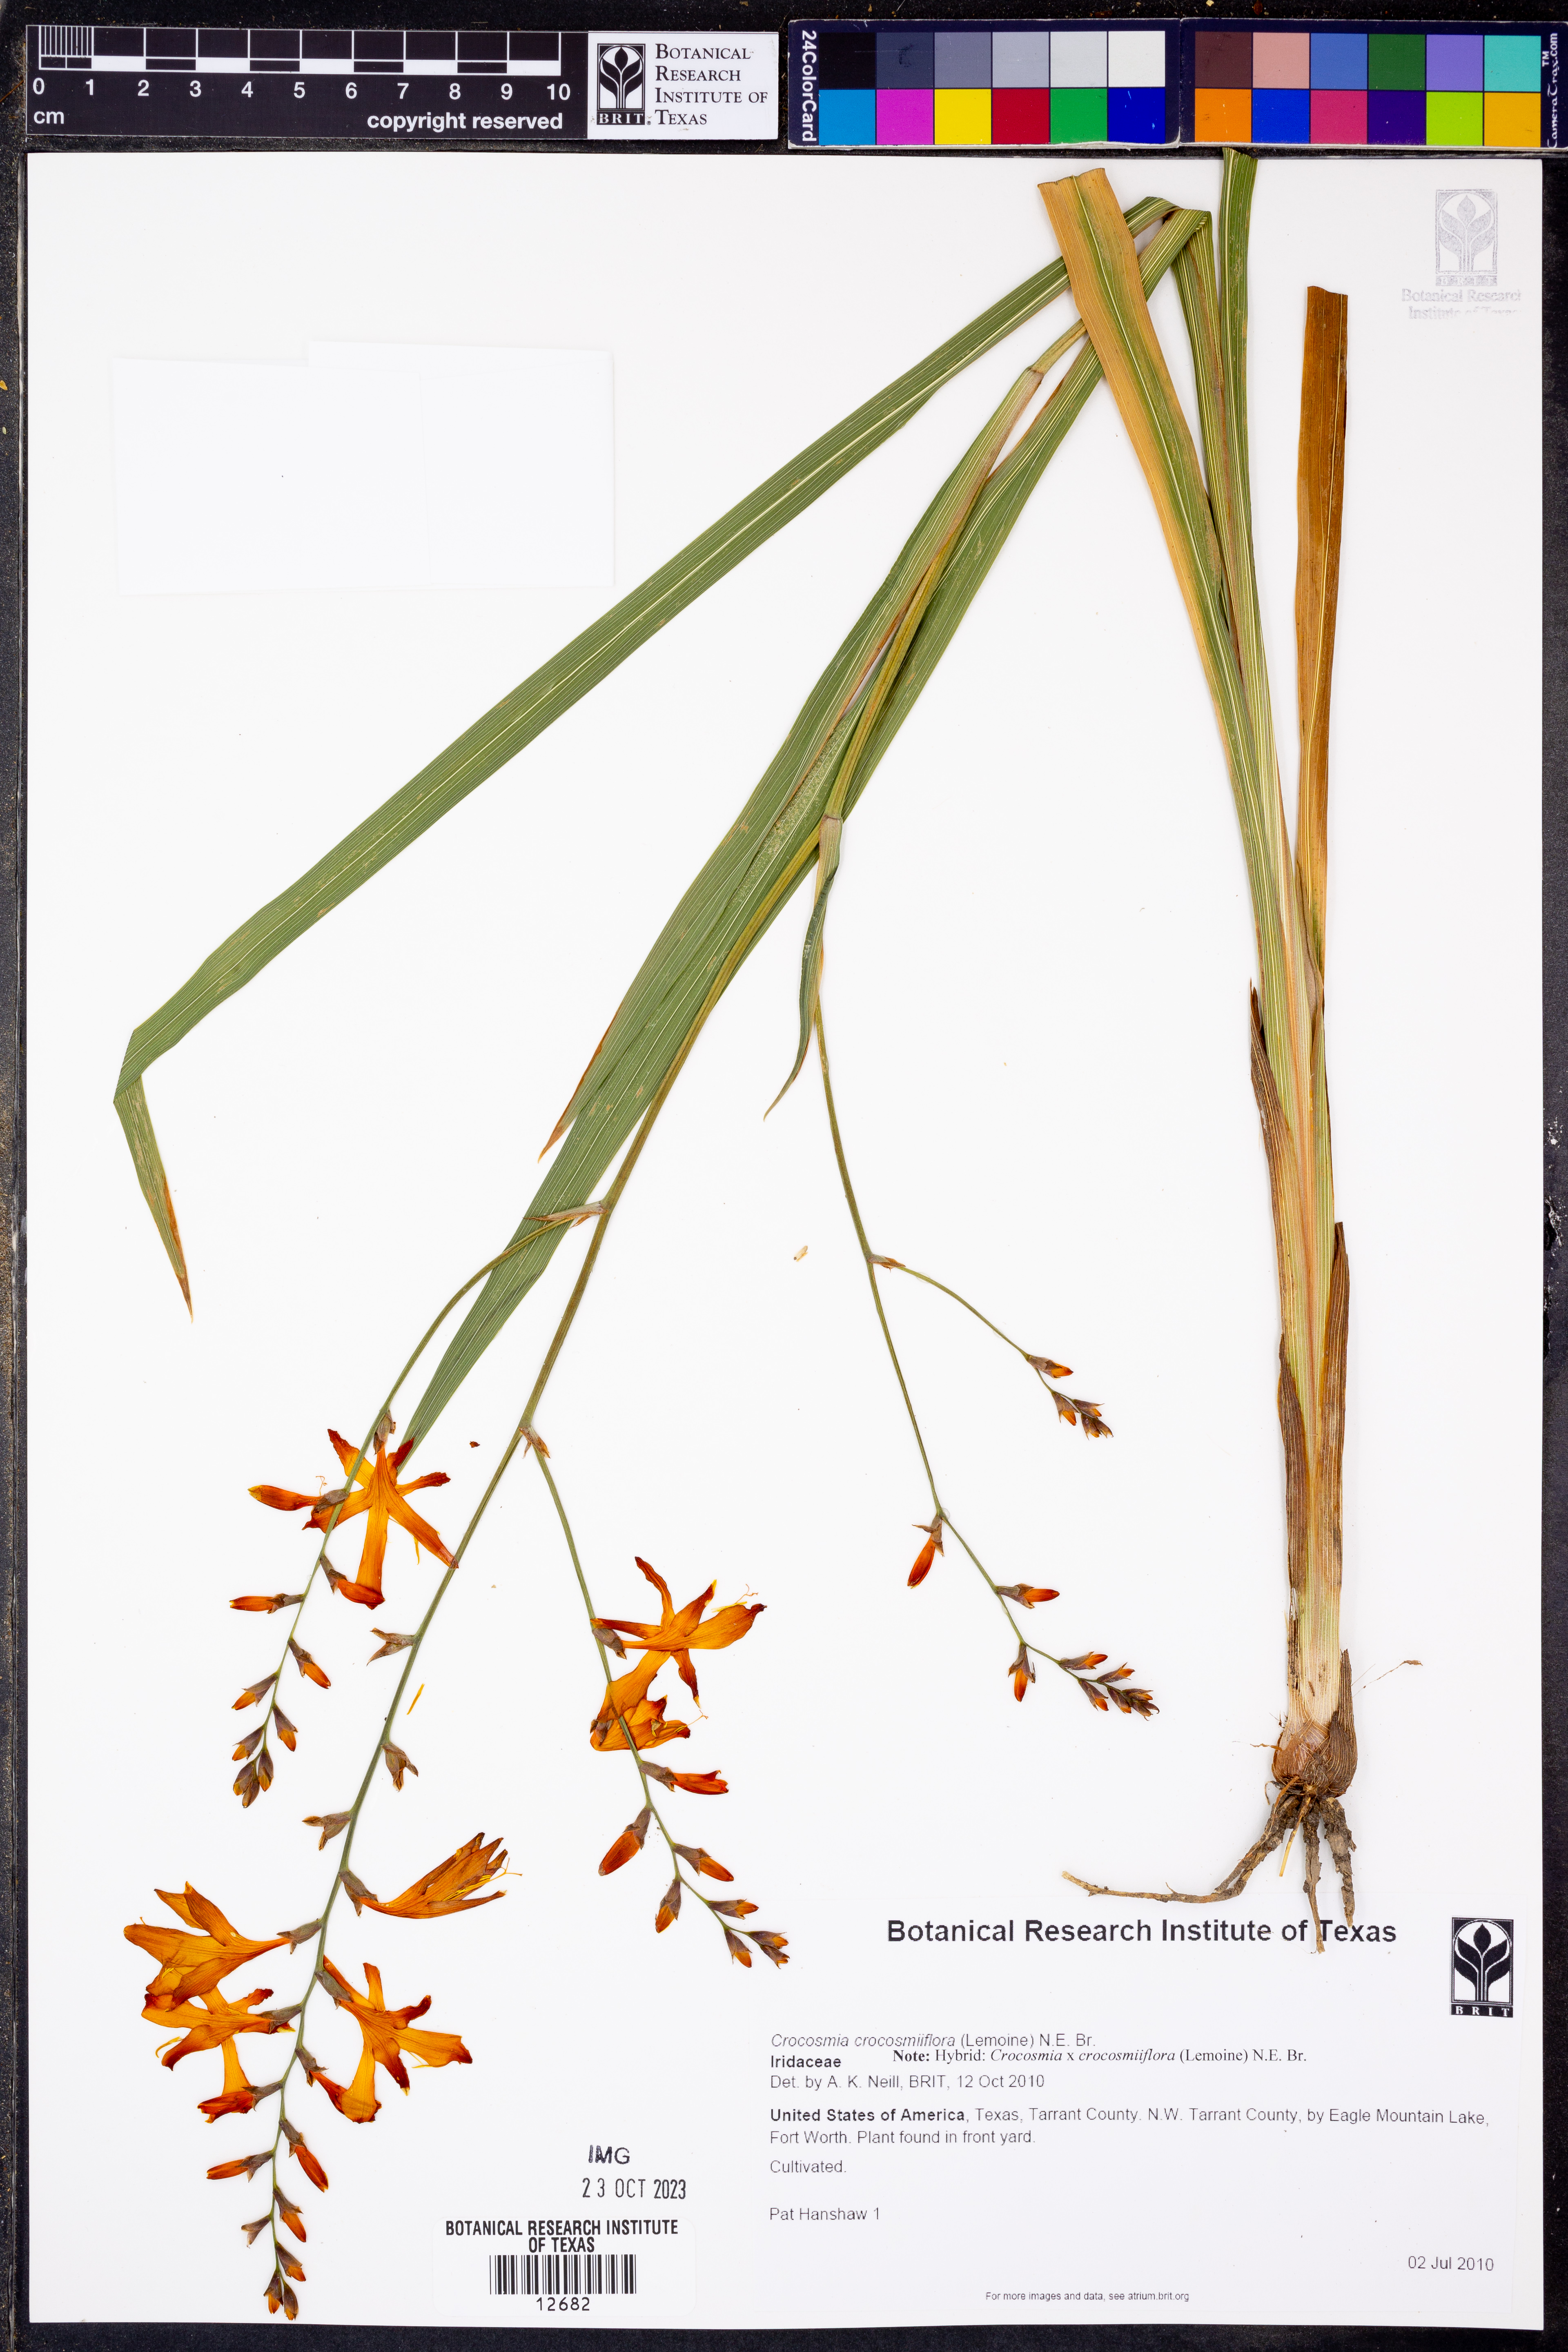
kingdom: Plantae
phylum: Tracheophyta
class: Liliopsida
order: Asparagales
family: Iridaceae
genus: Crocosmia
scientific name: Crocosmia crocosmiiflora
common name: Montbretia
